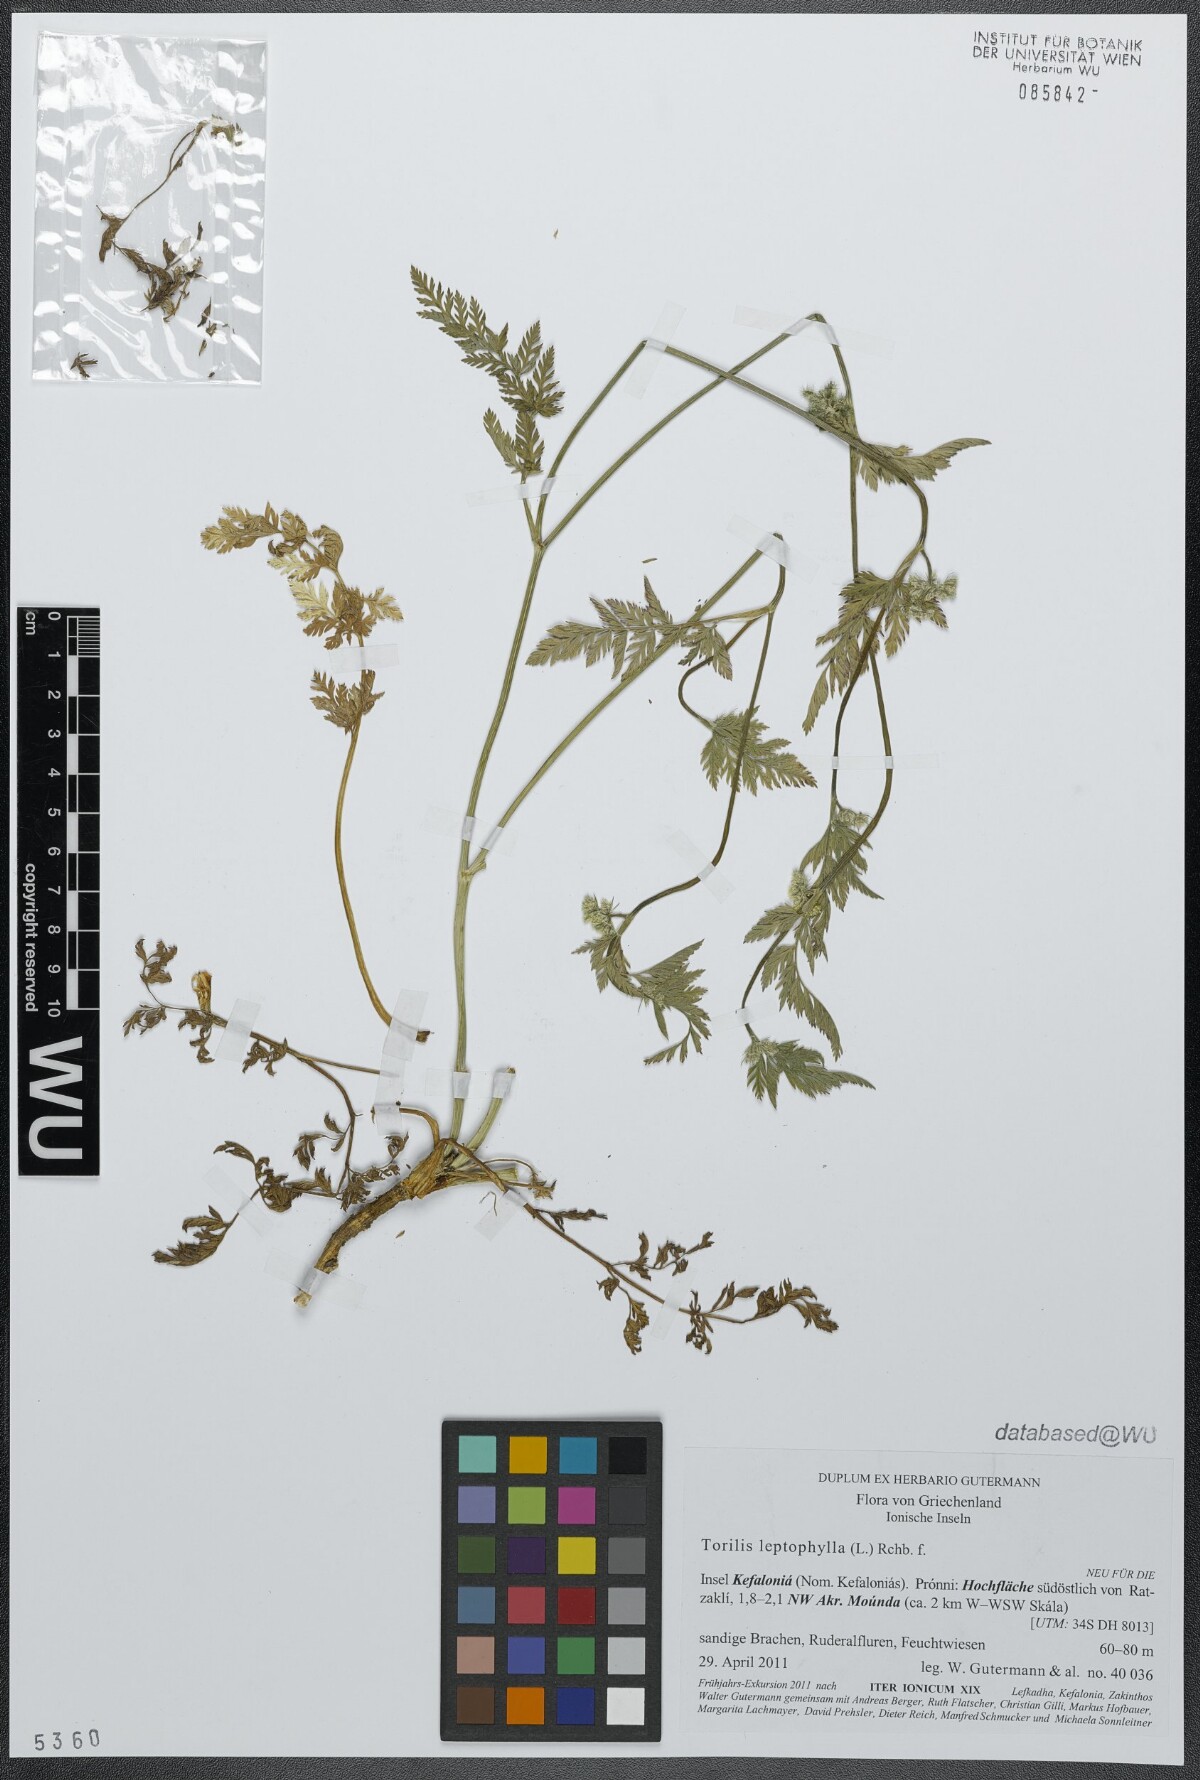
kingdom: Plantae
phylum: Tracheophyta
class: Magnoliopsida
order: Apiales
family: Apiaceae
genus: Torilis
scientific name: Torilis leptophylla
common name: Bristlefruit hedgeparsley
